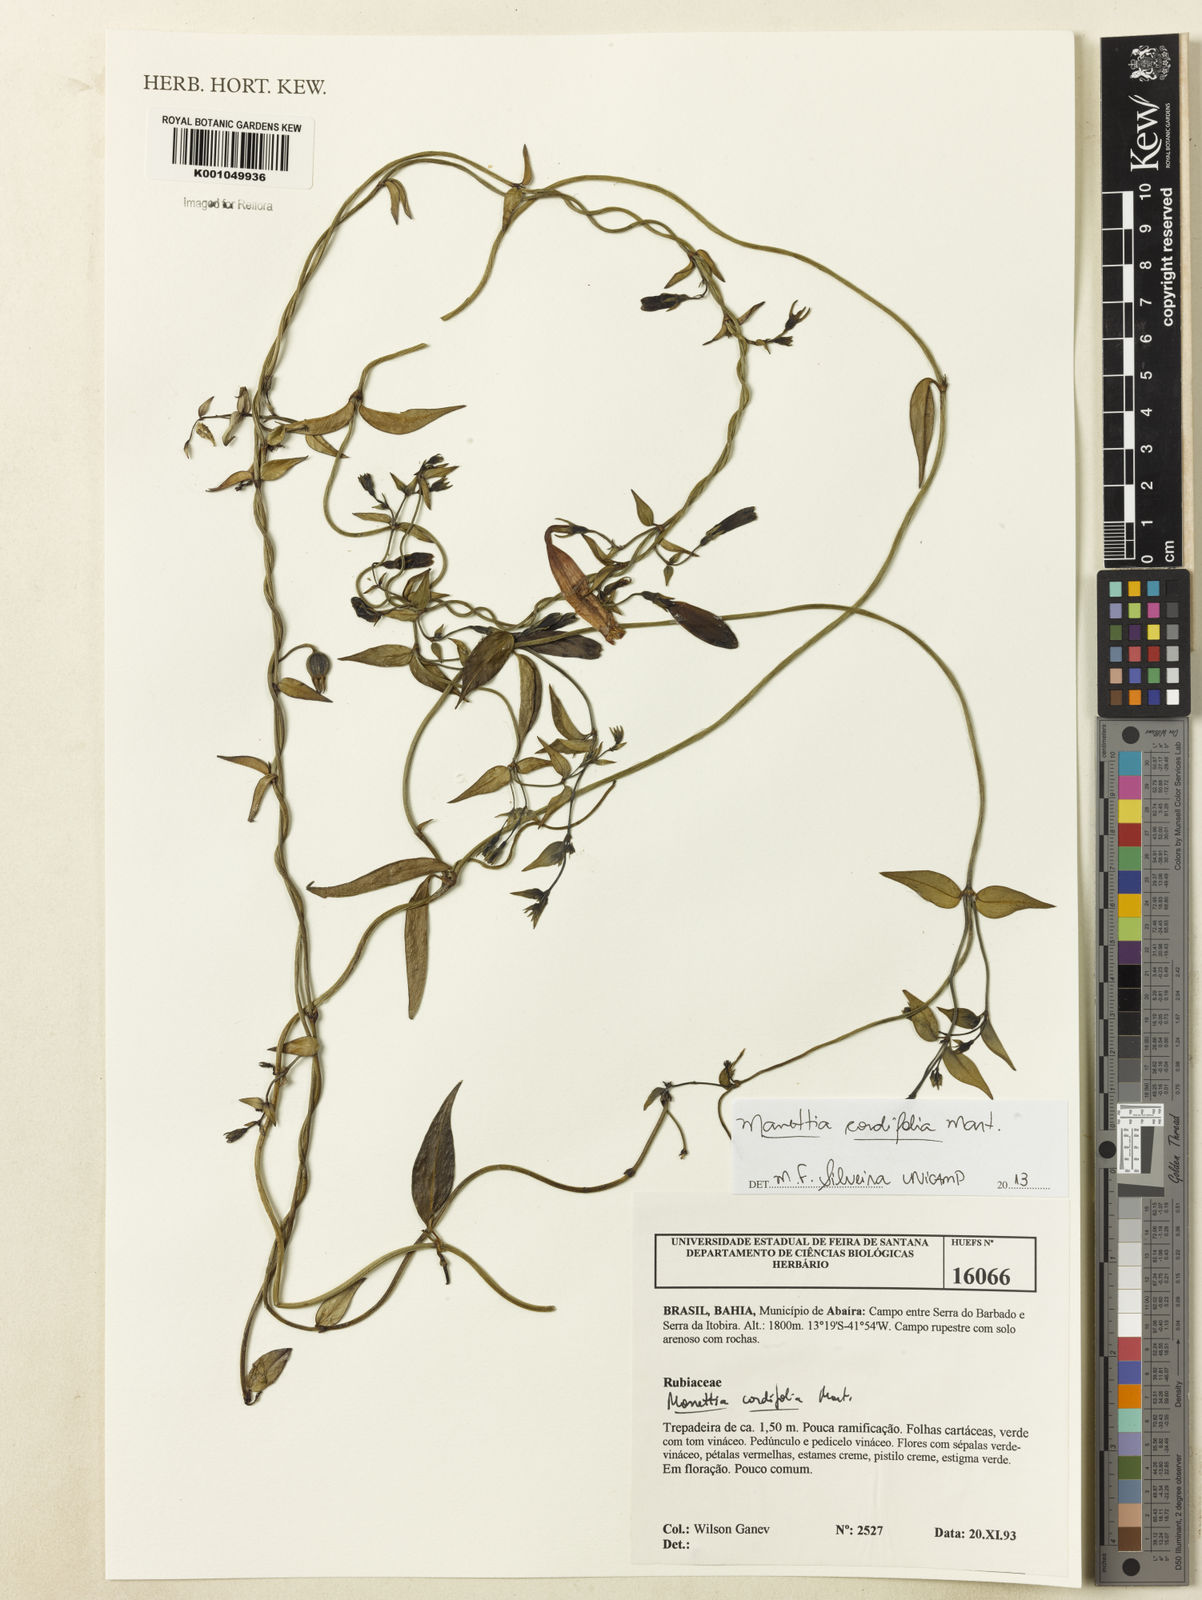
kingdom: Plantae
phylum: Tracheophyta
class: Magnoliopsida
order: Gentianales
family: Rubiaceae
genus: Manettia
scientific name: Manettia cordifolia
